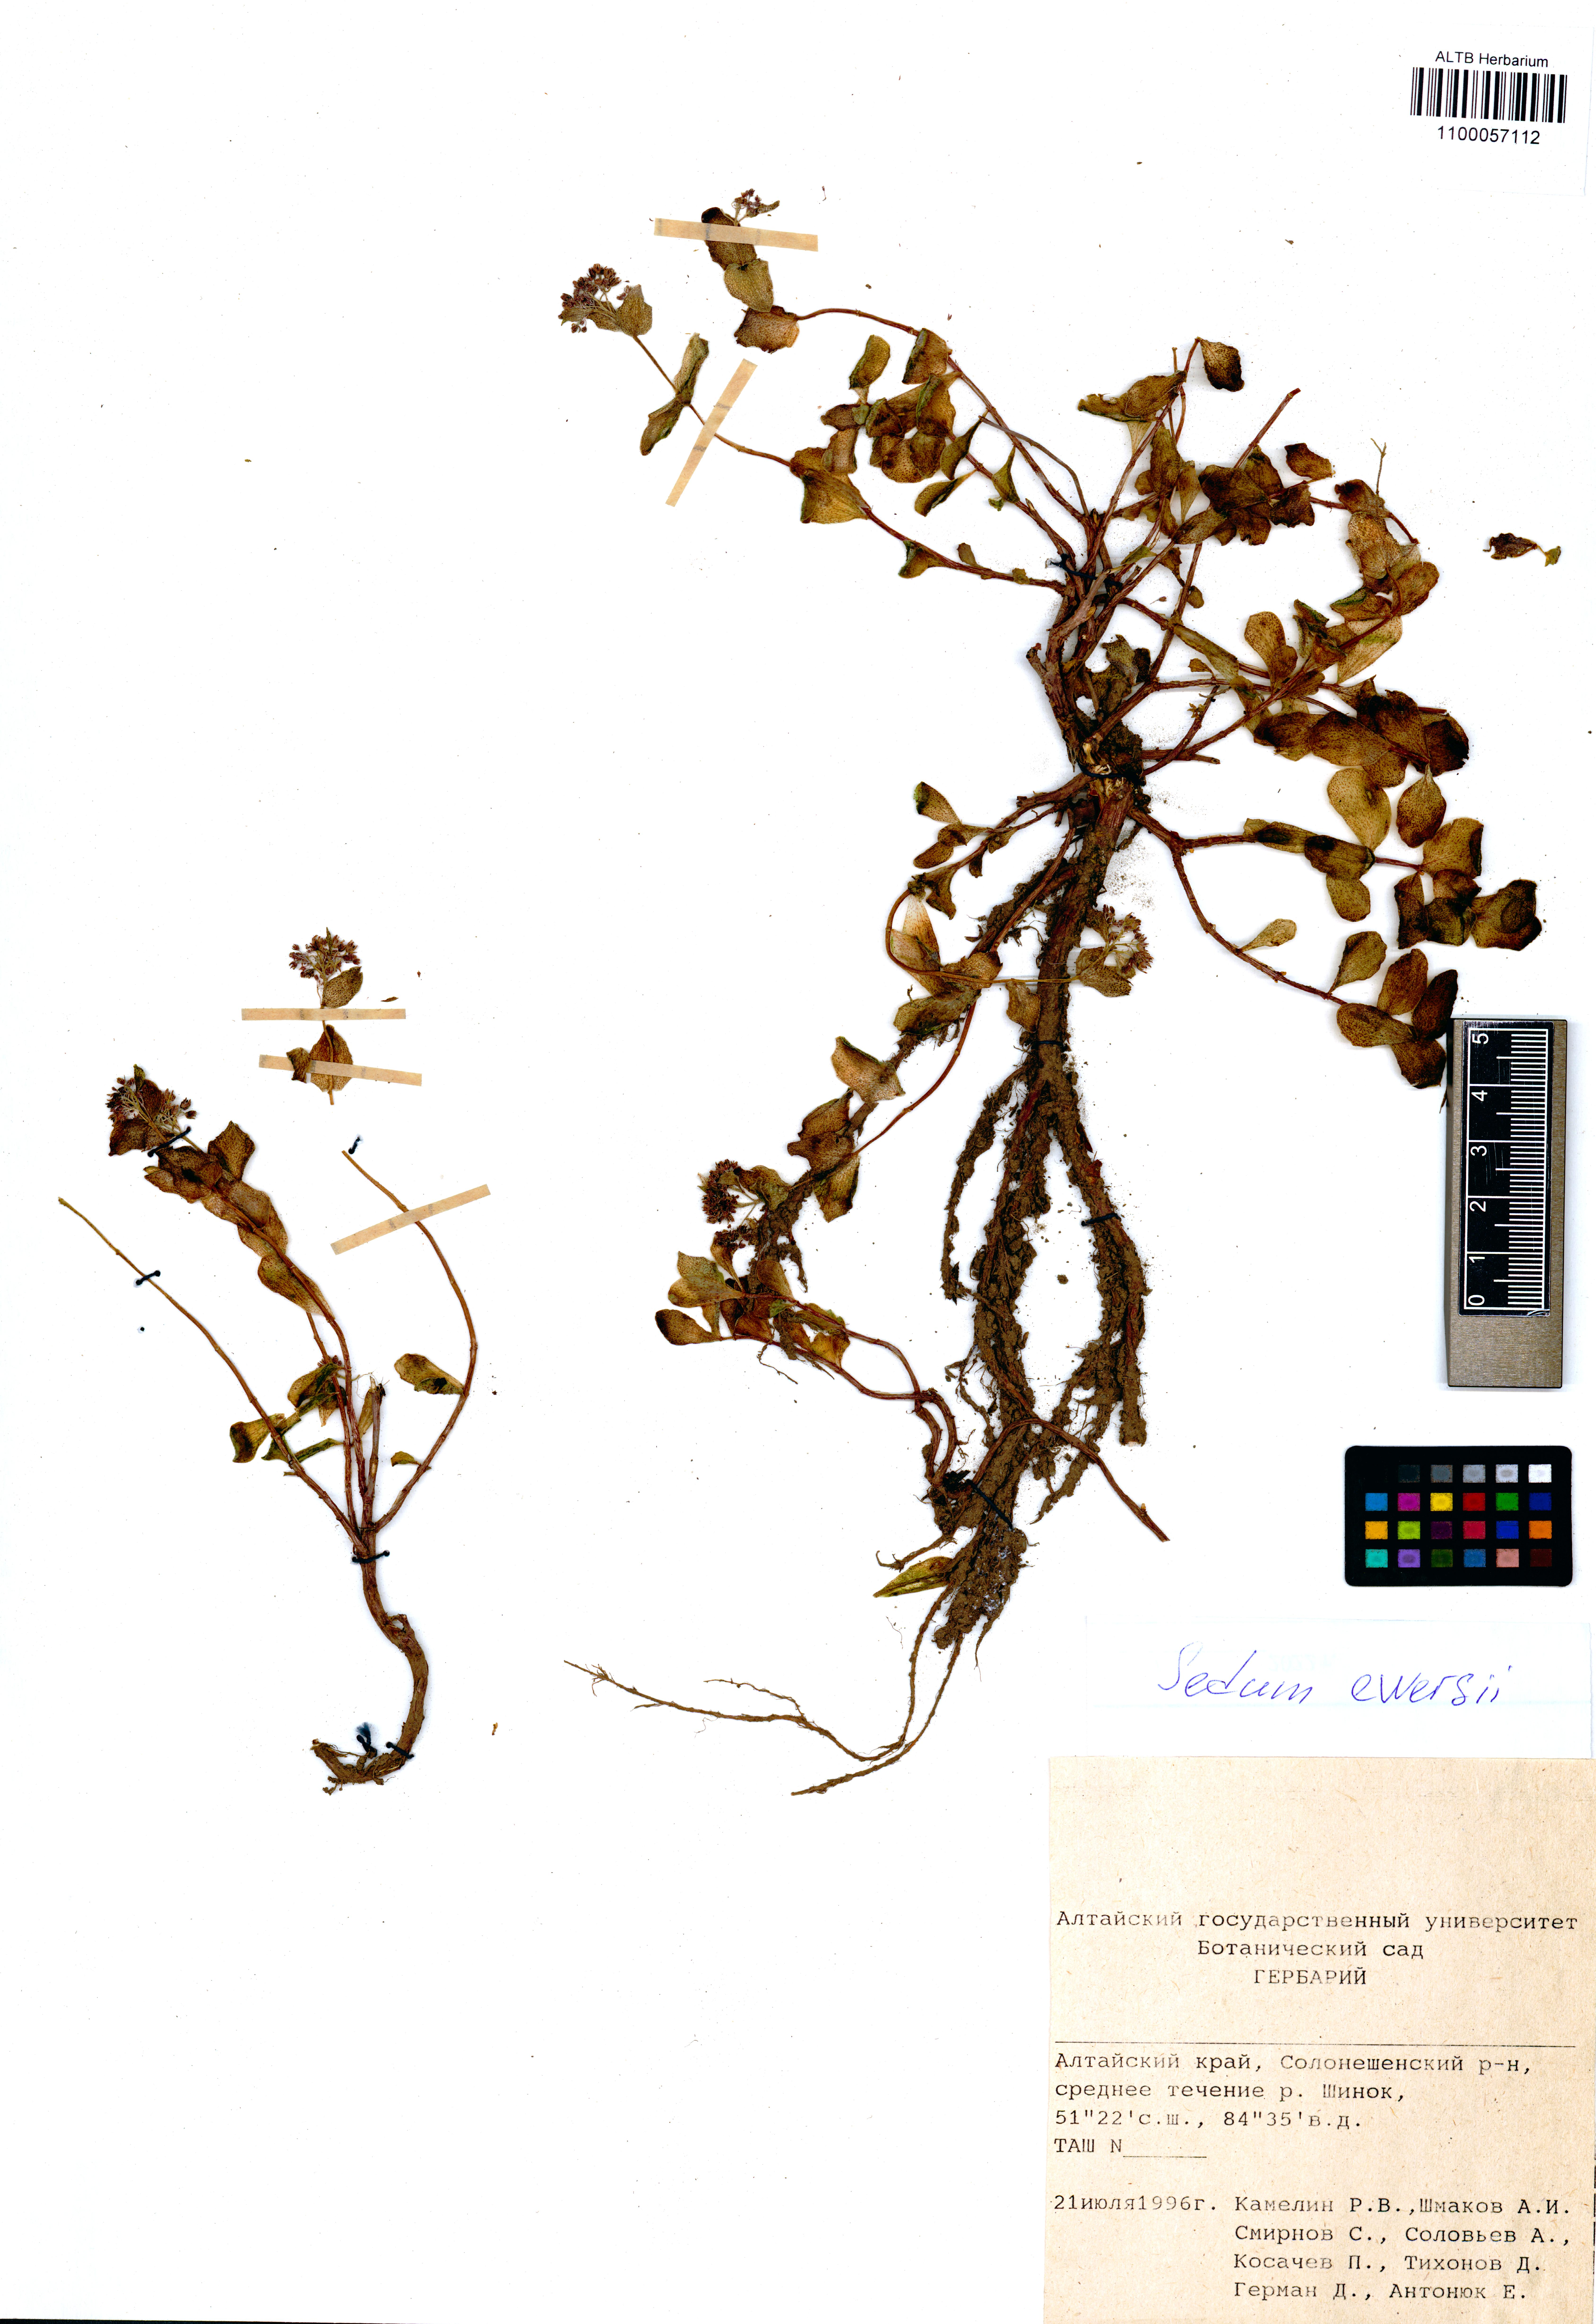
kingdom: Plantae
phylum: Tracheophyta
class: Magnoliopsida
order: Saxifragales
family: Crassulaceae
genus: Hylotelephium
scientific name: Hylotelephium ewersii
